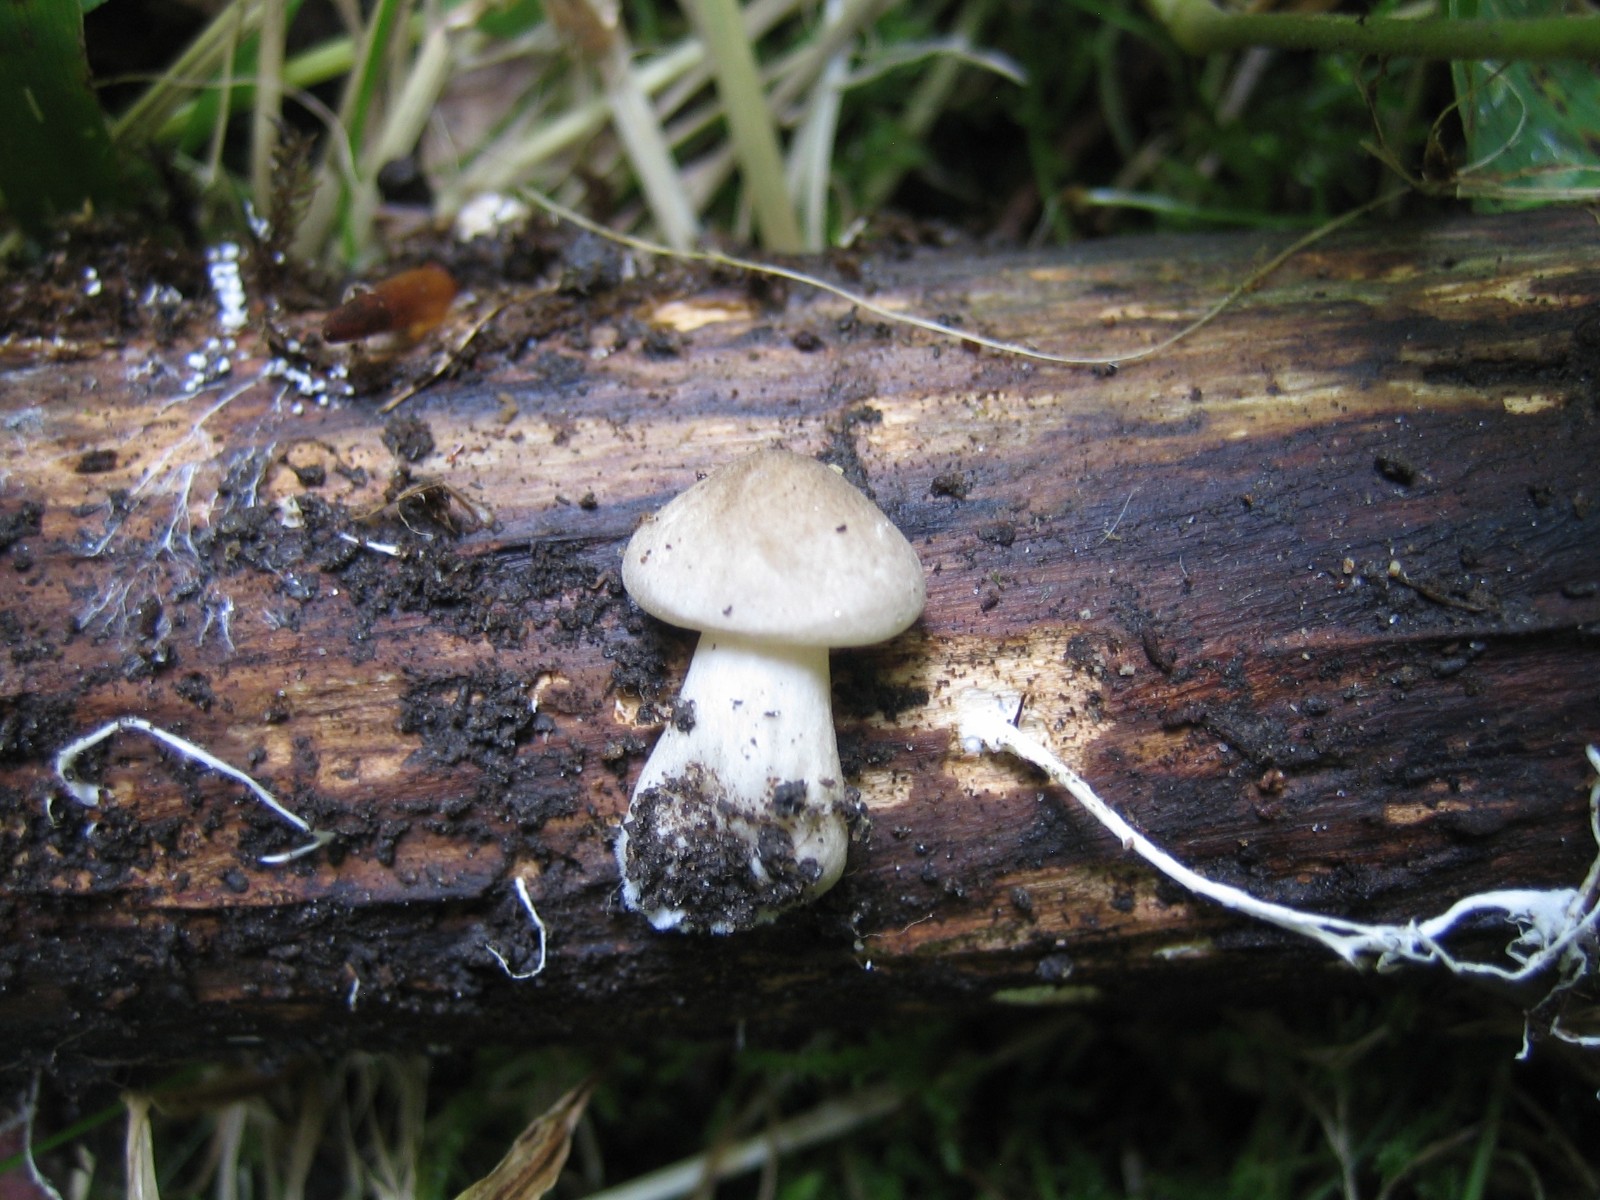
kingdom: Fungi
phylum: Basidiomycota
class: Agaricomycetes
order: Agaricales
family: Tricholomataceae
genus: Megacollybia
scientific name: Megacollybia platyphylla
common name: bredbladet væbnerhat
